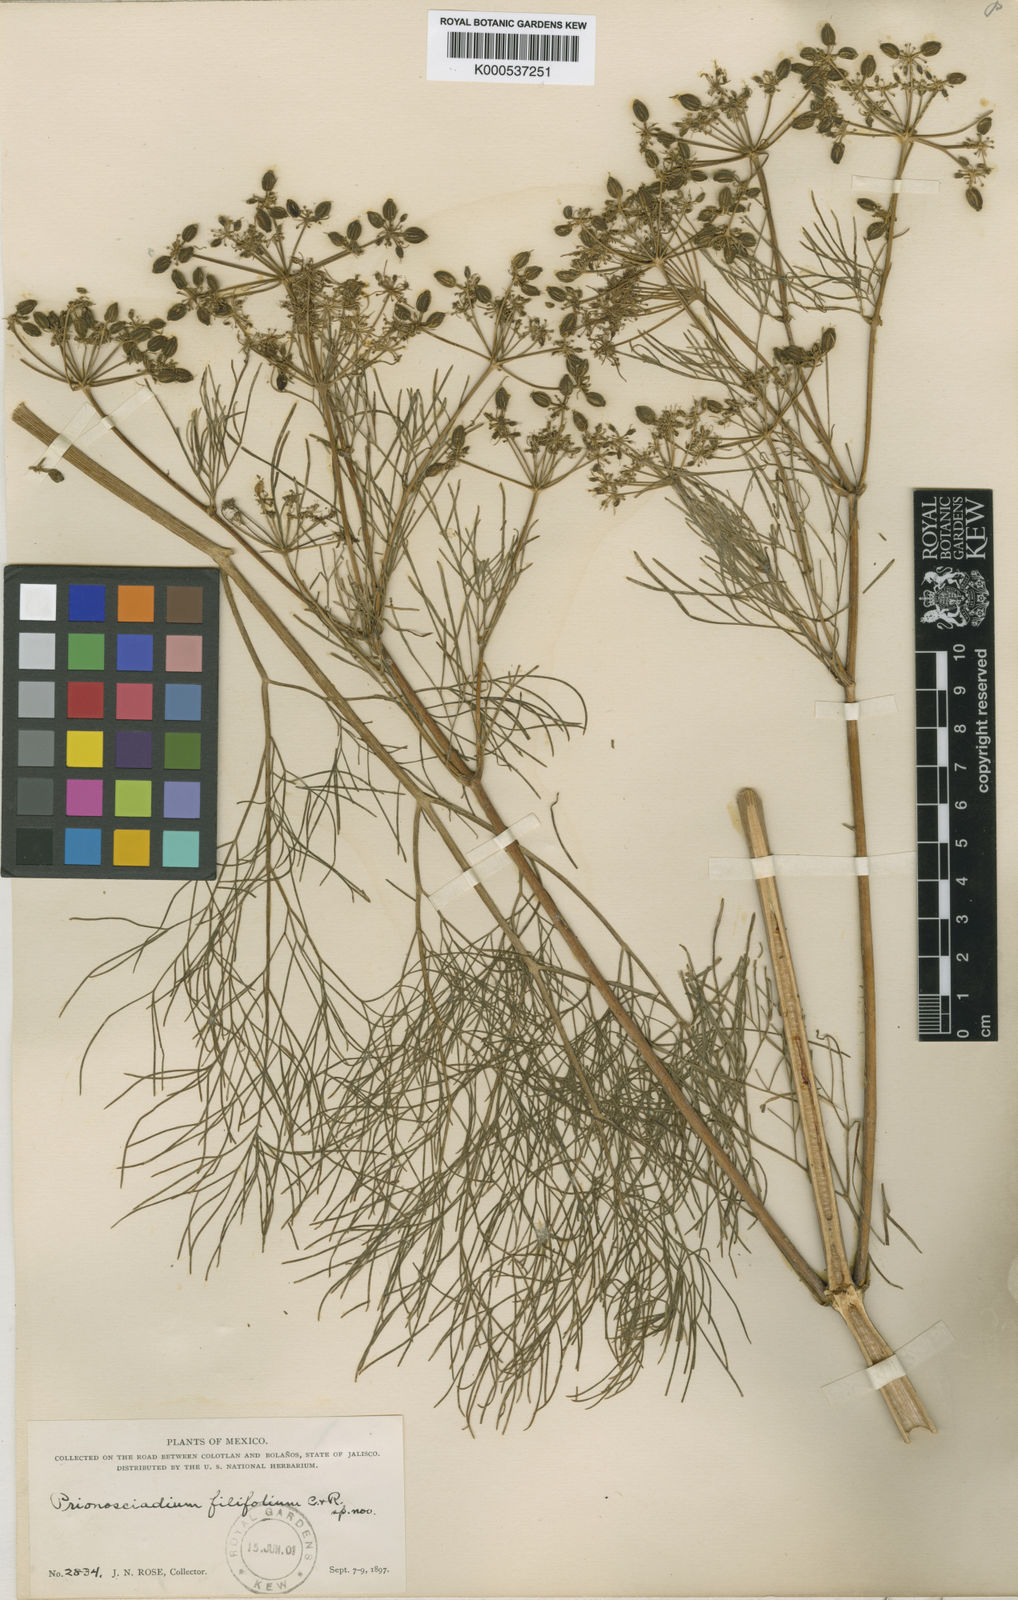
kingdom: Plantae
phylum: Tracheophyta
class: Magnoliopsida
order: Apiales
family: Apiaceae
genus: Prionosciadium
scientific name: Prionosciadium filifolium
